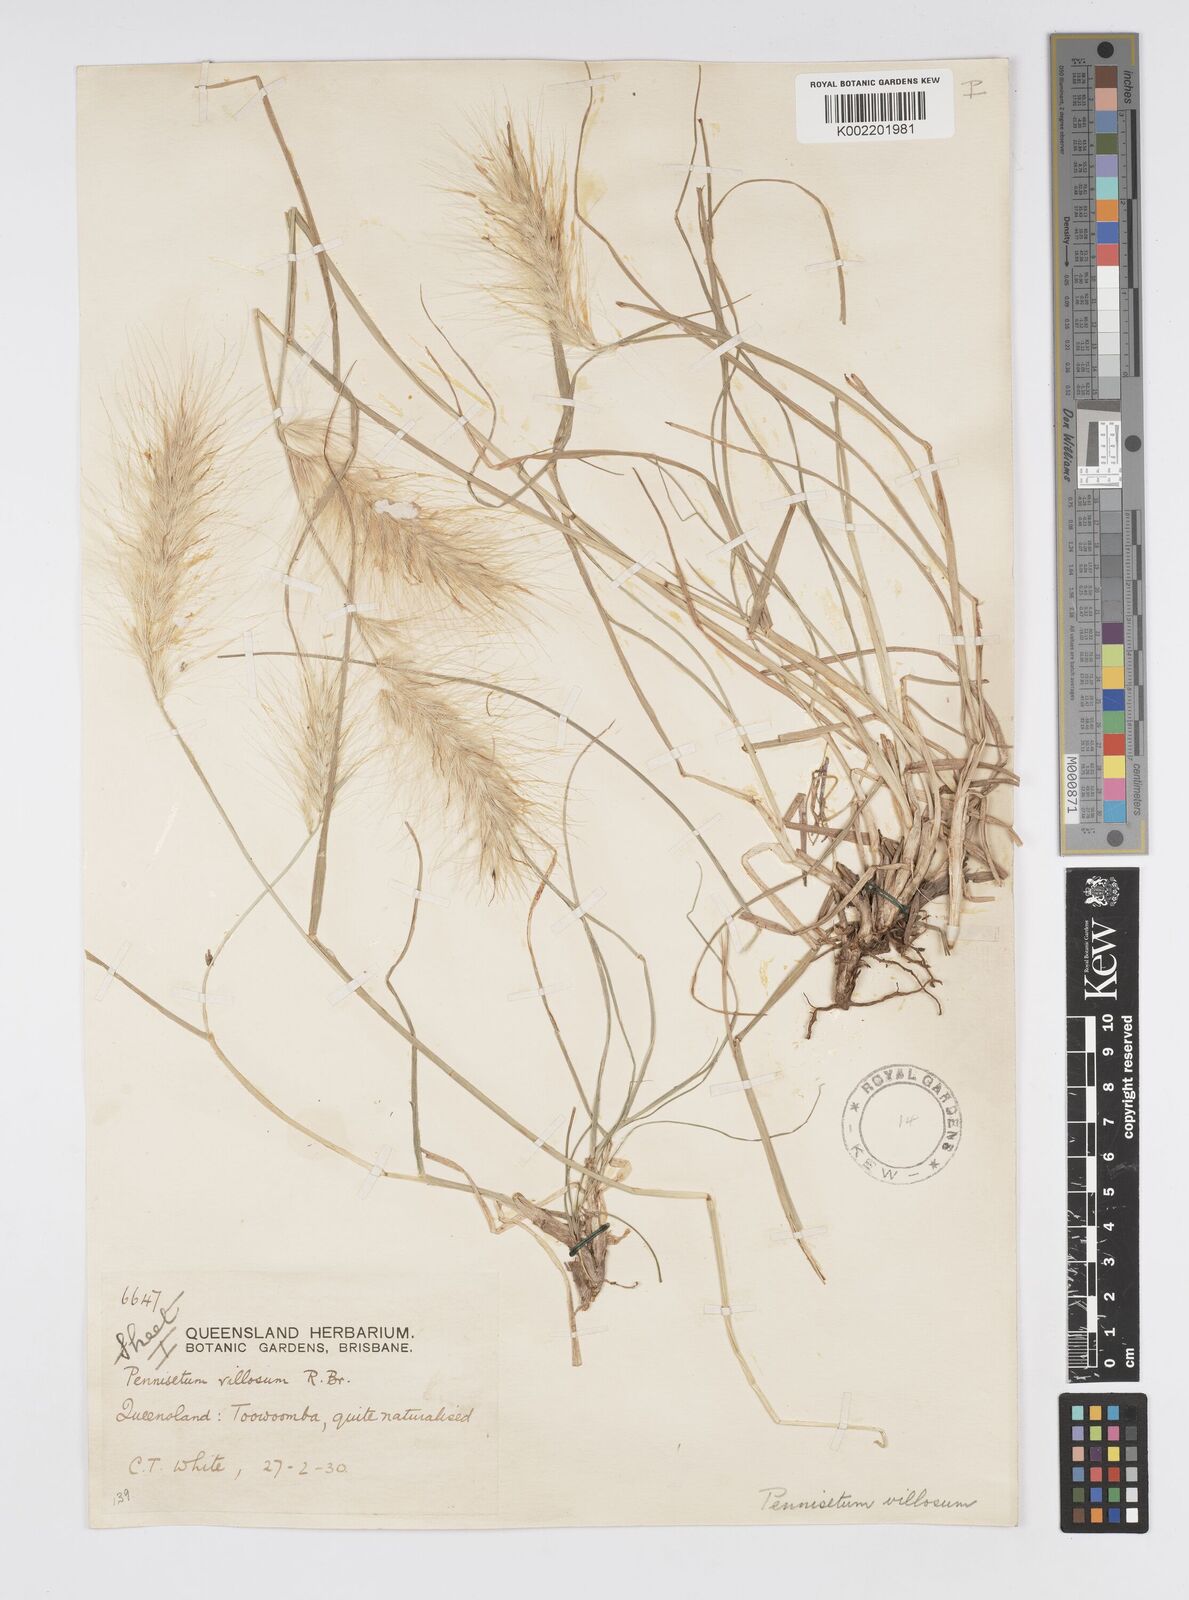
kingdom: Plantae
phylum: Tracheophyta
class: Liliopsida
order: Poales
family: Poaceae
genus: Cenchrus
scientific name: Cenchrus longisetus
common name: Feathertop
